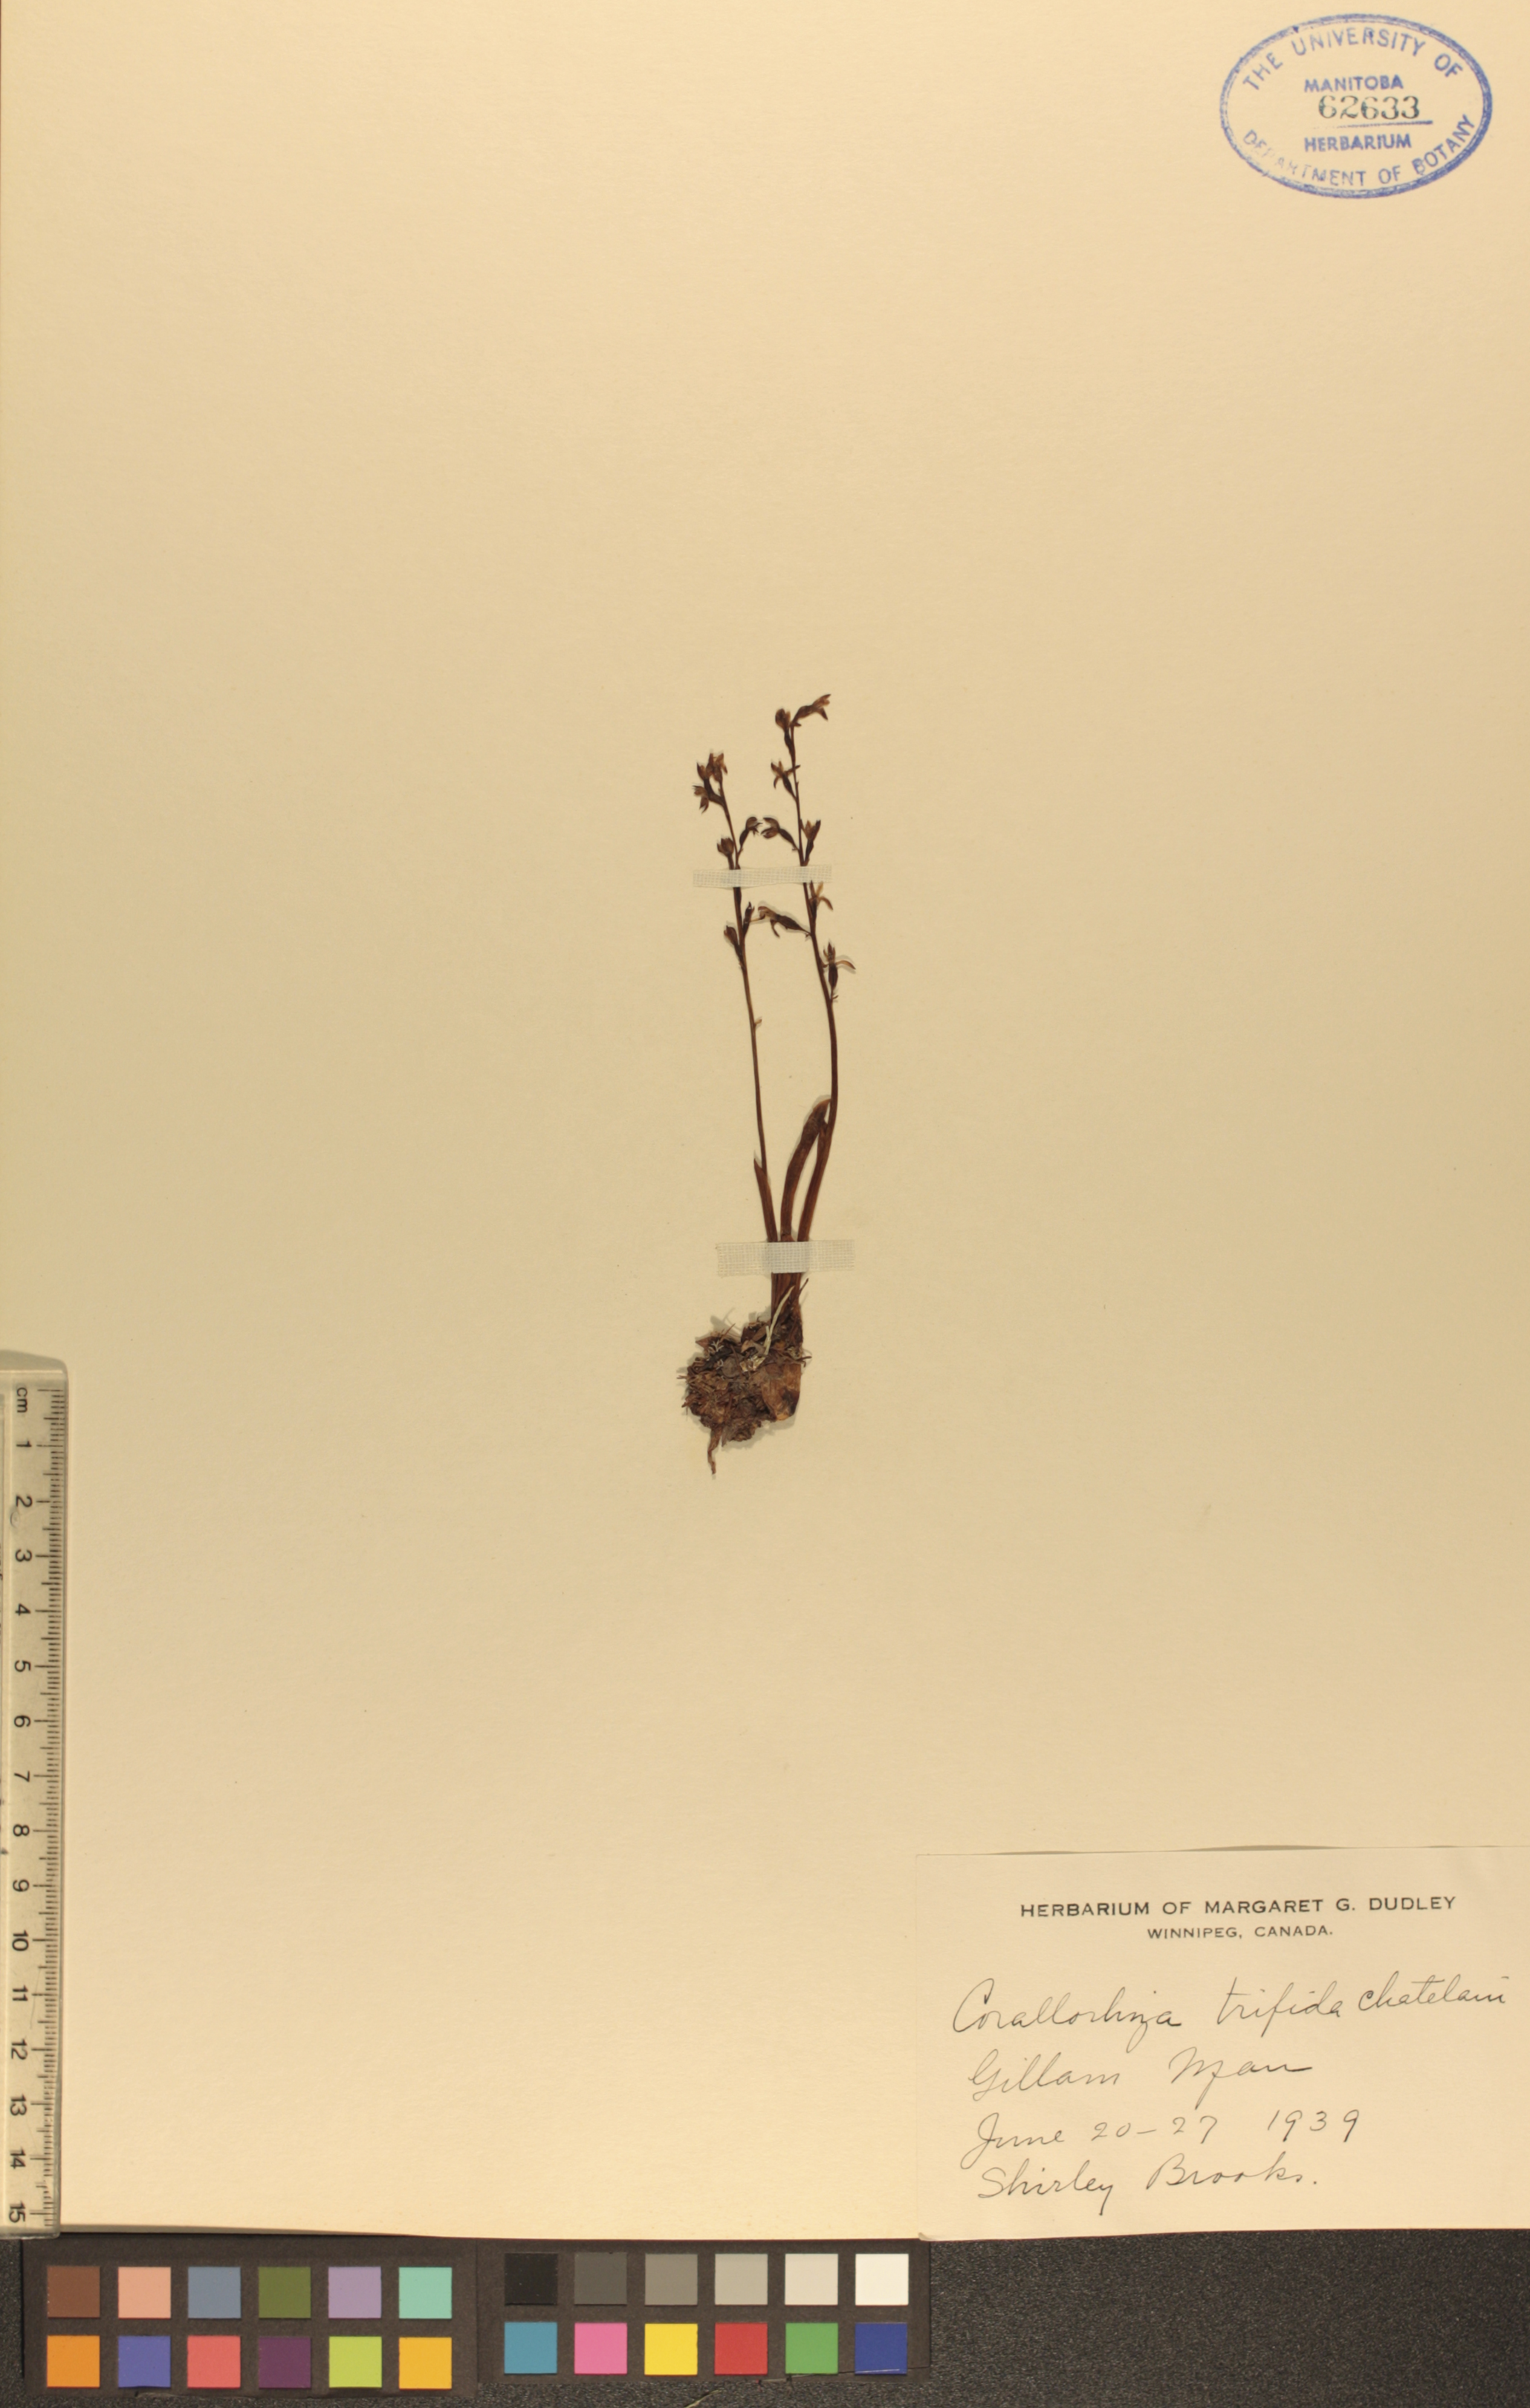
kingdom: Plantae
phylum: Tracheophyta
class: Liliopsida
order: Asparagales
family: Orchidaceae
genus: Corallorhiza
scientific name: Corallorhiza trifida
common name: Yellow coralroot
